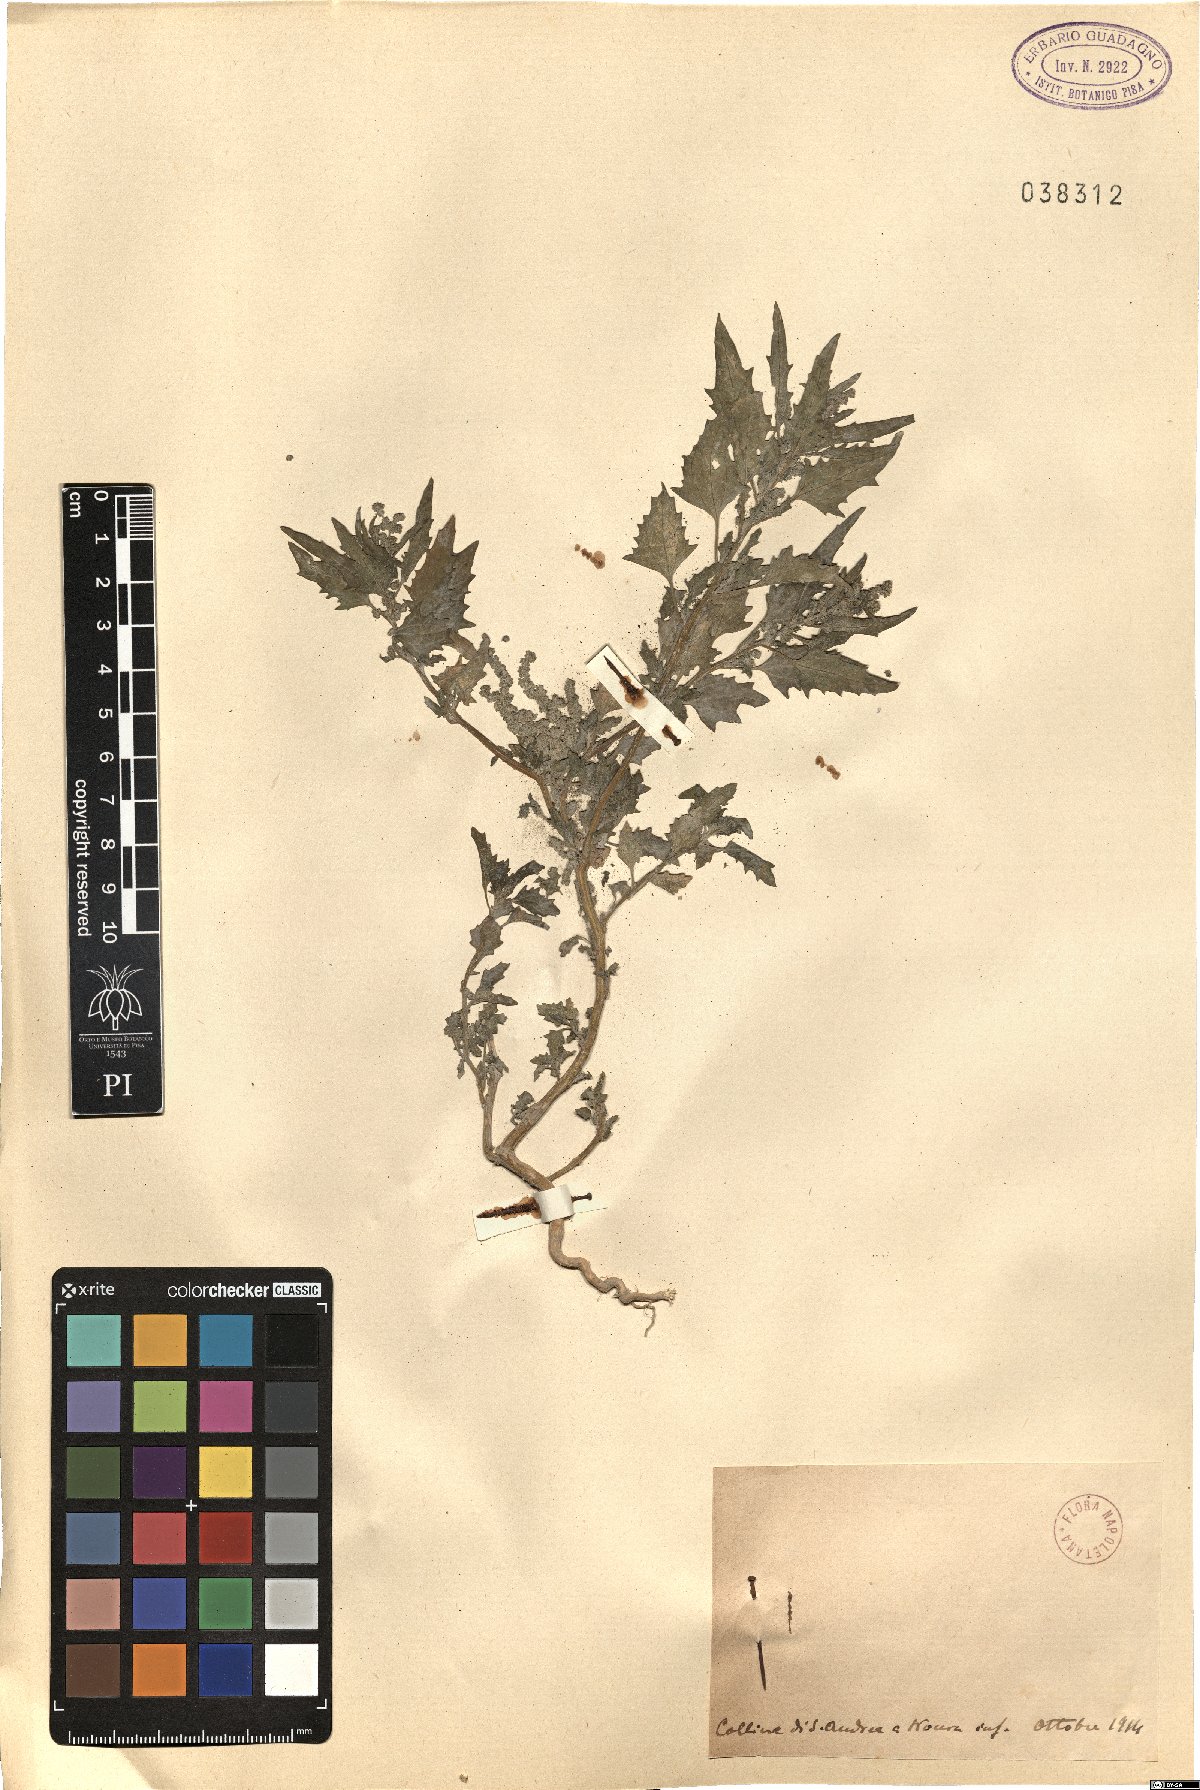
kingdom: Plantae
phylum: Tracheophyta
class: Magnoliopsida
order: Caryophyllales
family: Amaranthaceae
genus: Chenopodium
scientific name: Chenopodium
